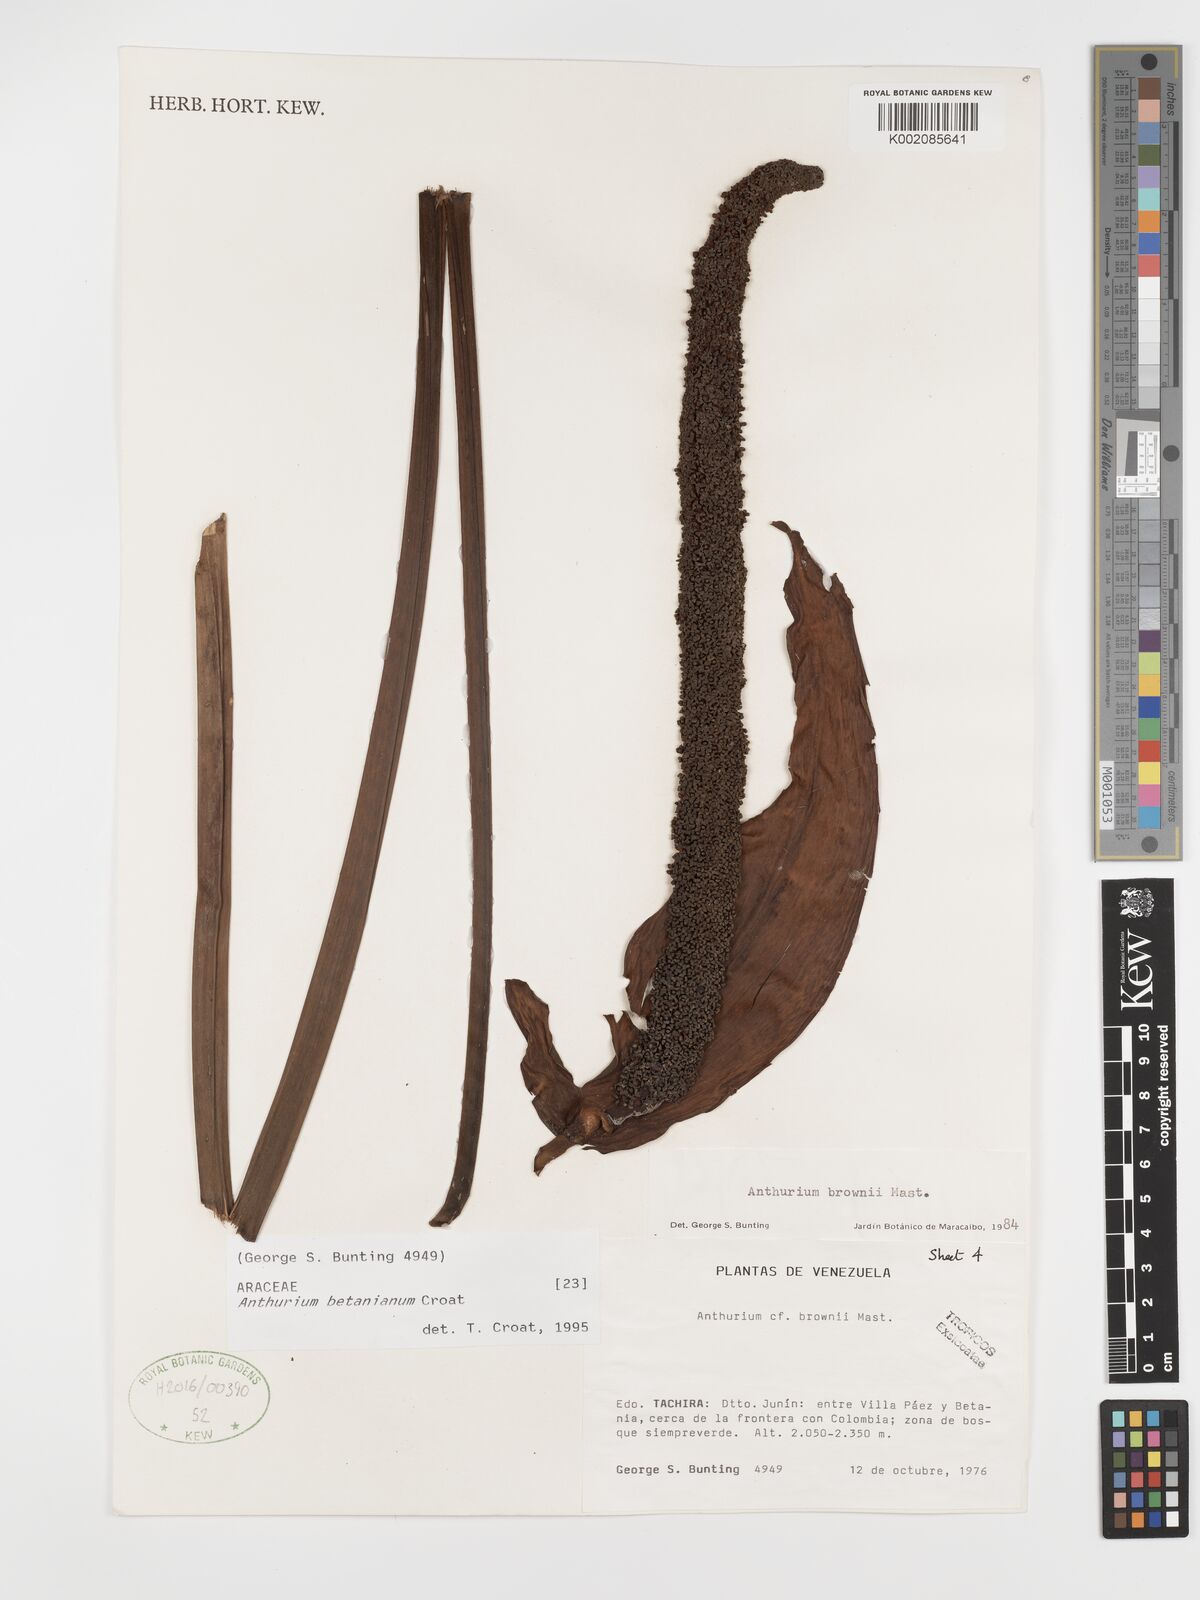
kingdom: Plantae
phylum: Tracheophyta
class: Liliopsida
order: Alismatales
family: Araceae
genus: Anthurium
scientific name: Anthurium betanianum
